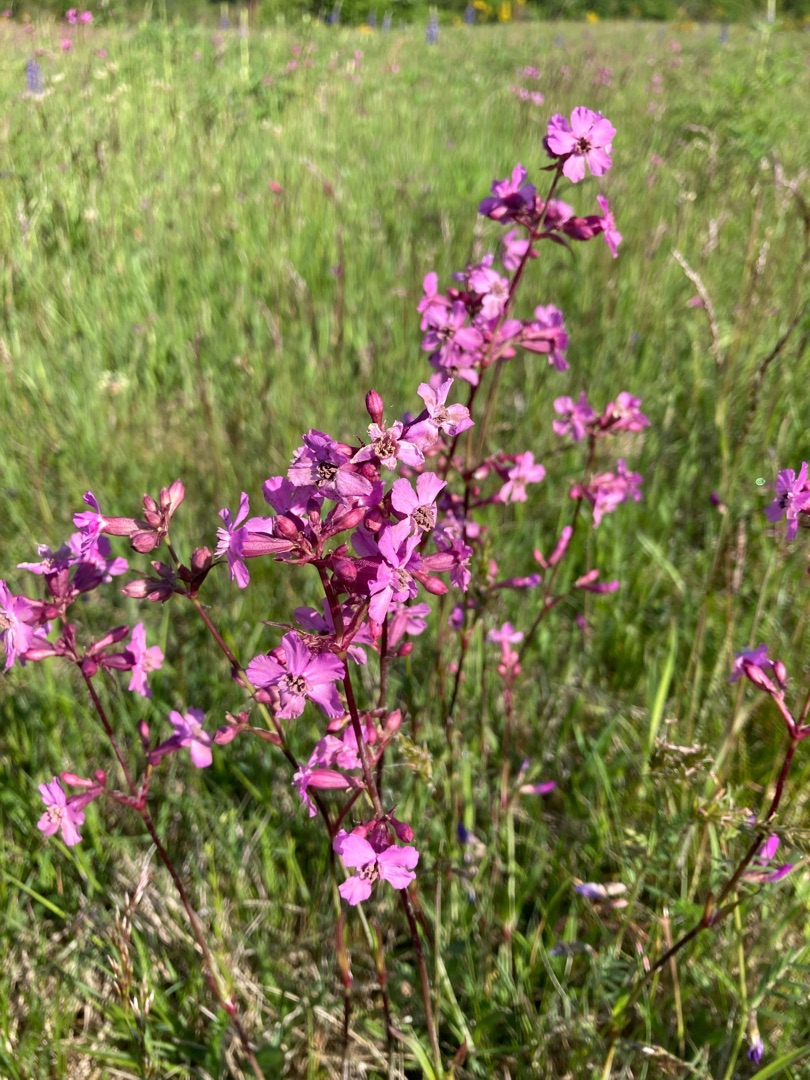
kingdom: Plantae
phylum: Tracheophyta
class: Magnoliopsida
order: Caryophyllales
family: Caryophyllaceae
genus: Viscaria
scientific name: Viscaria vulgaris
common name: Tjærenellike
